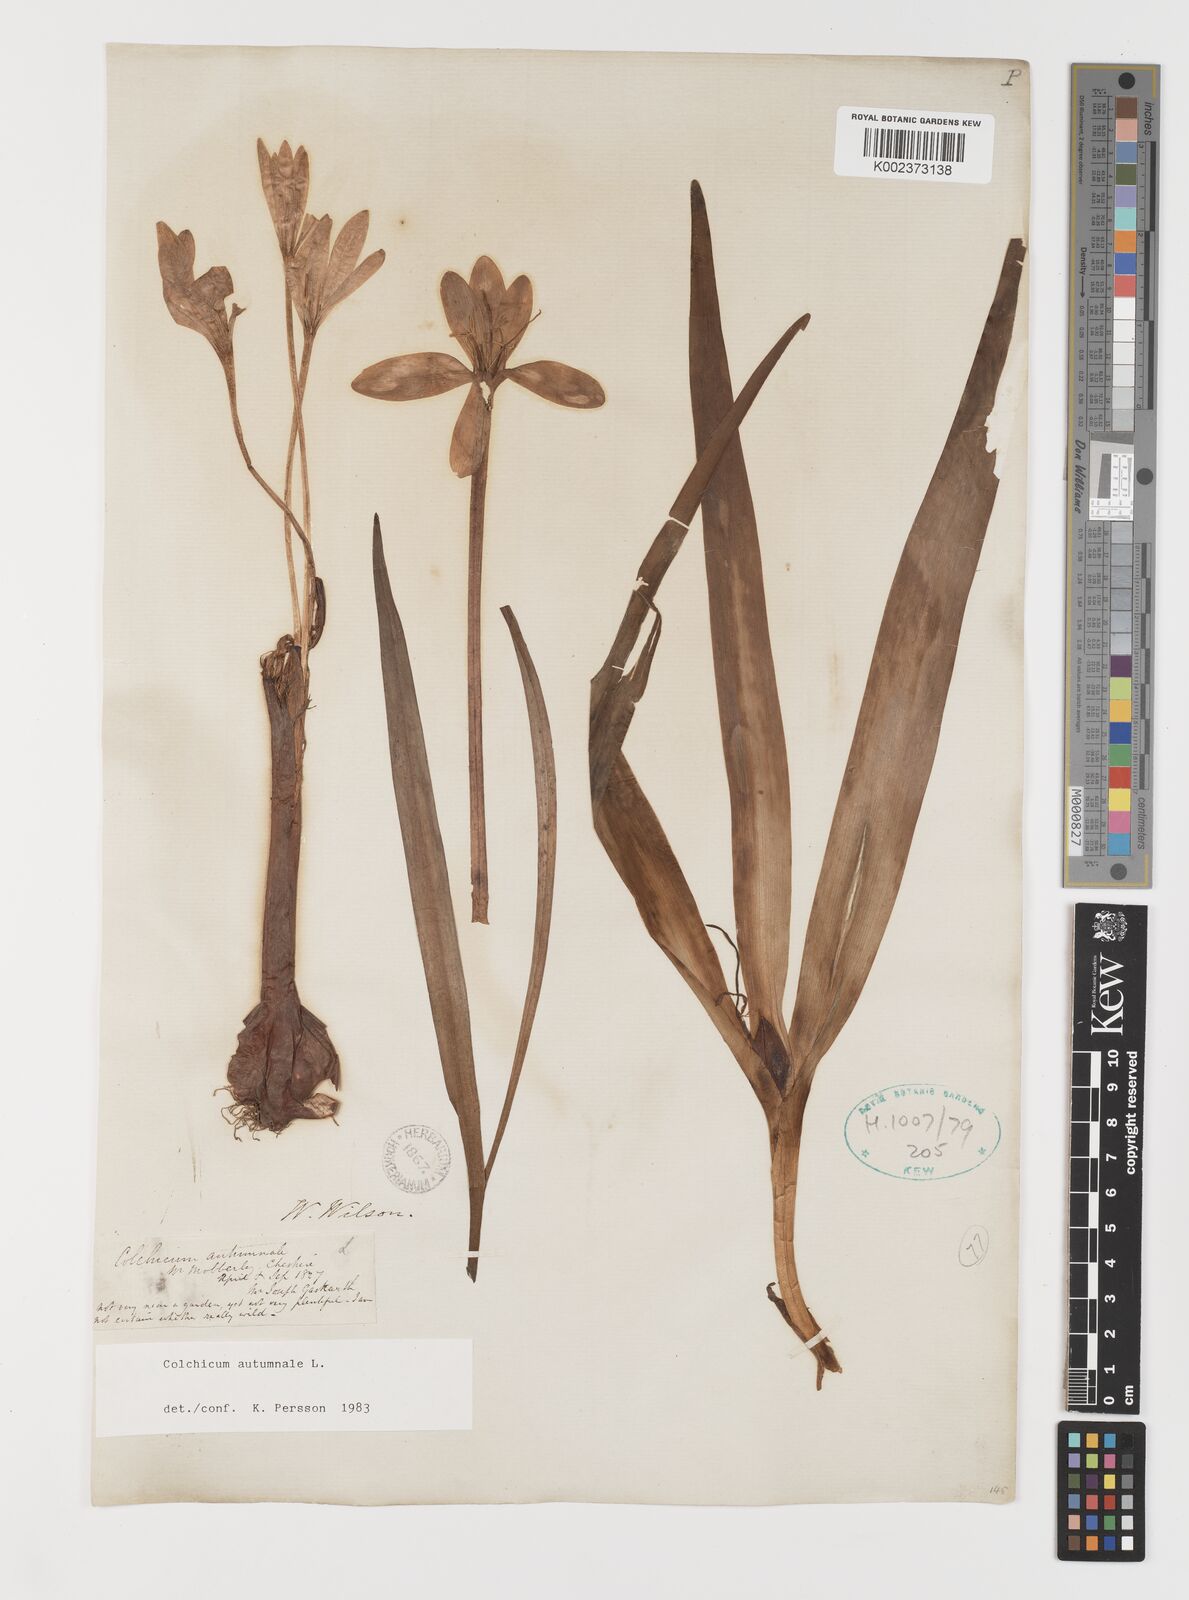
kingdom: Plantae
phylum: Tracheophyta
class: Liliopsida
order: Liliales
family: Colchicaceae
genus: Colchicum
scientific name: Colchicum autumnale
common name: Autumn crocus
